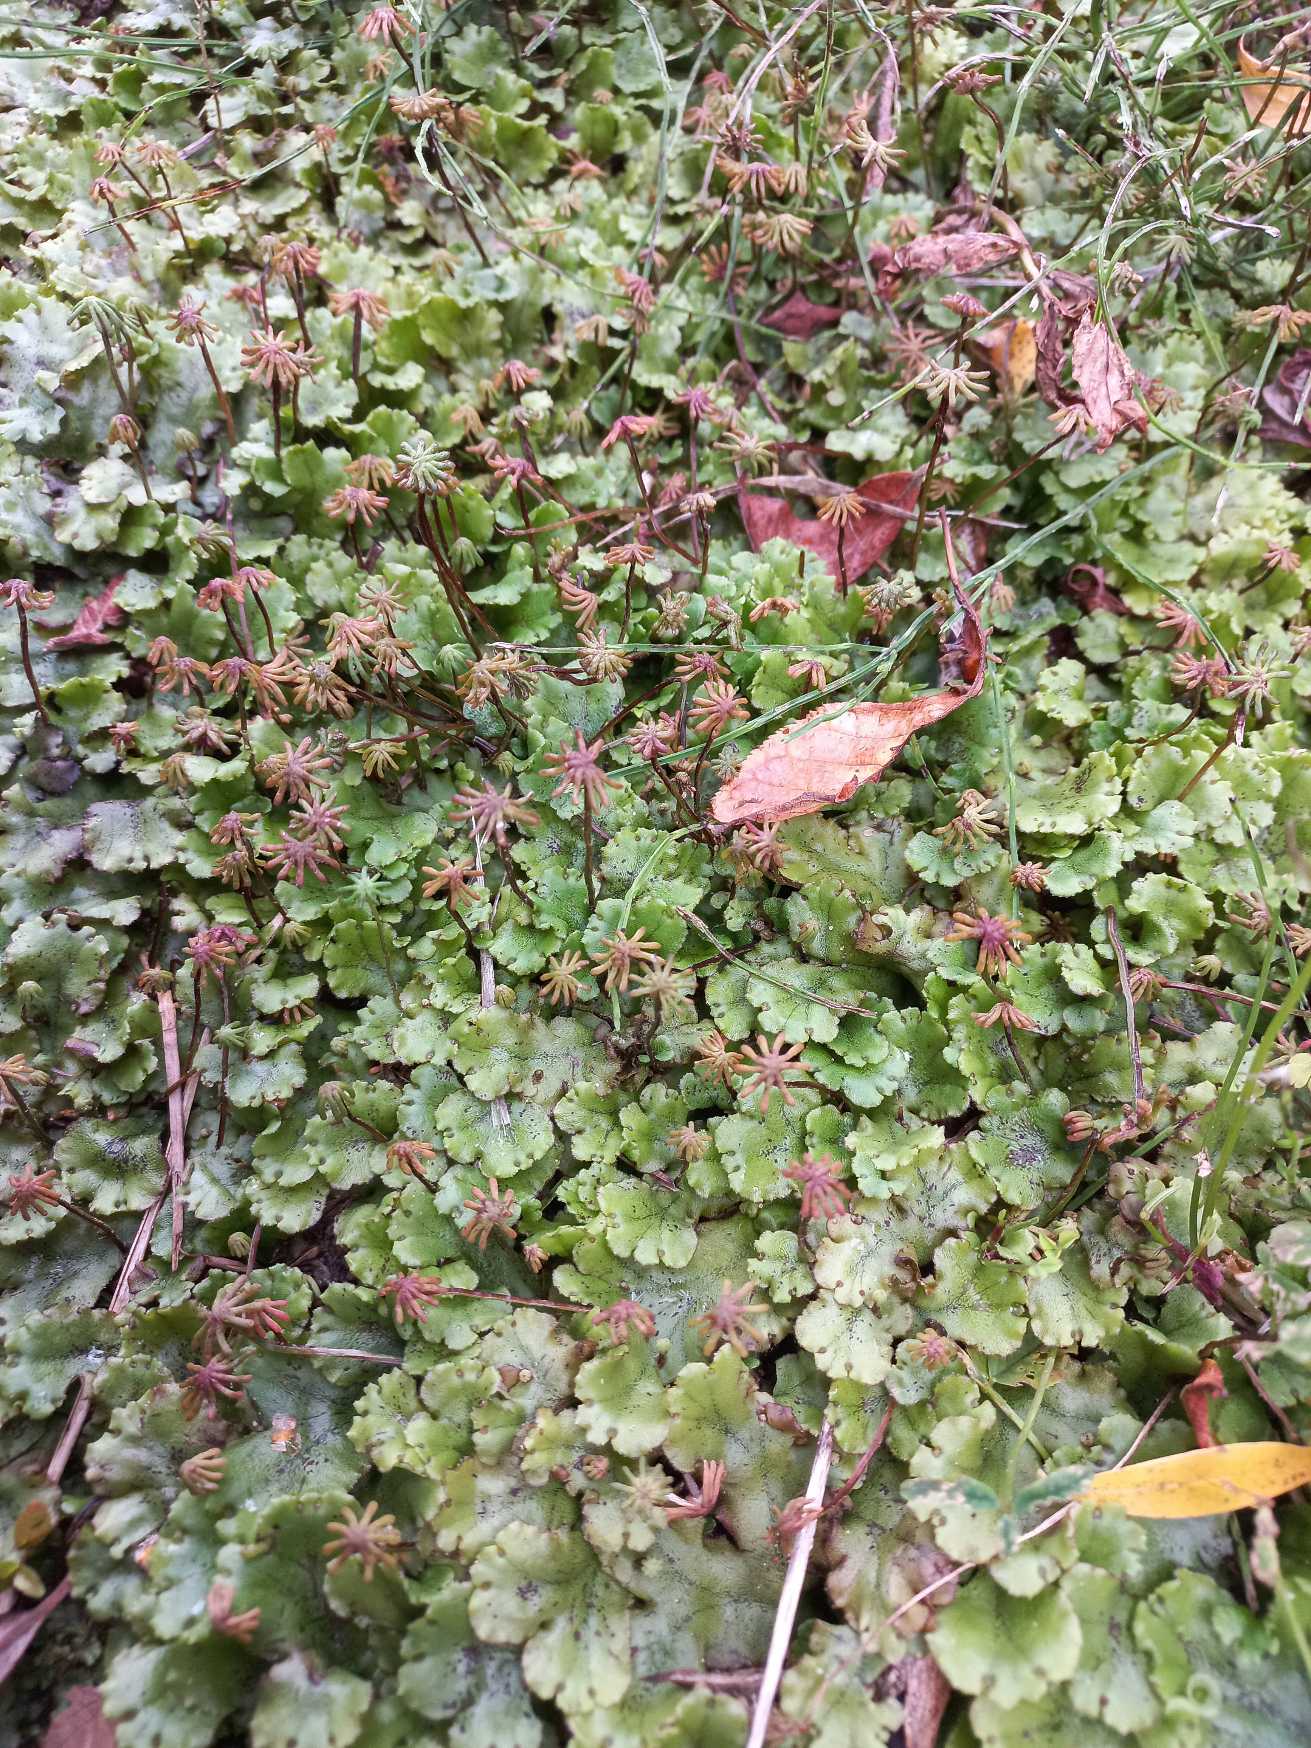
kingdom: Plantae
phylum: Marchantiophyta
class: Marchantiopsida
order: Marchantiales
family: Marchantiaceae
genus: Marchantia
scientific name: Marchantia polymorpha
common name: Almindelig lungemos
